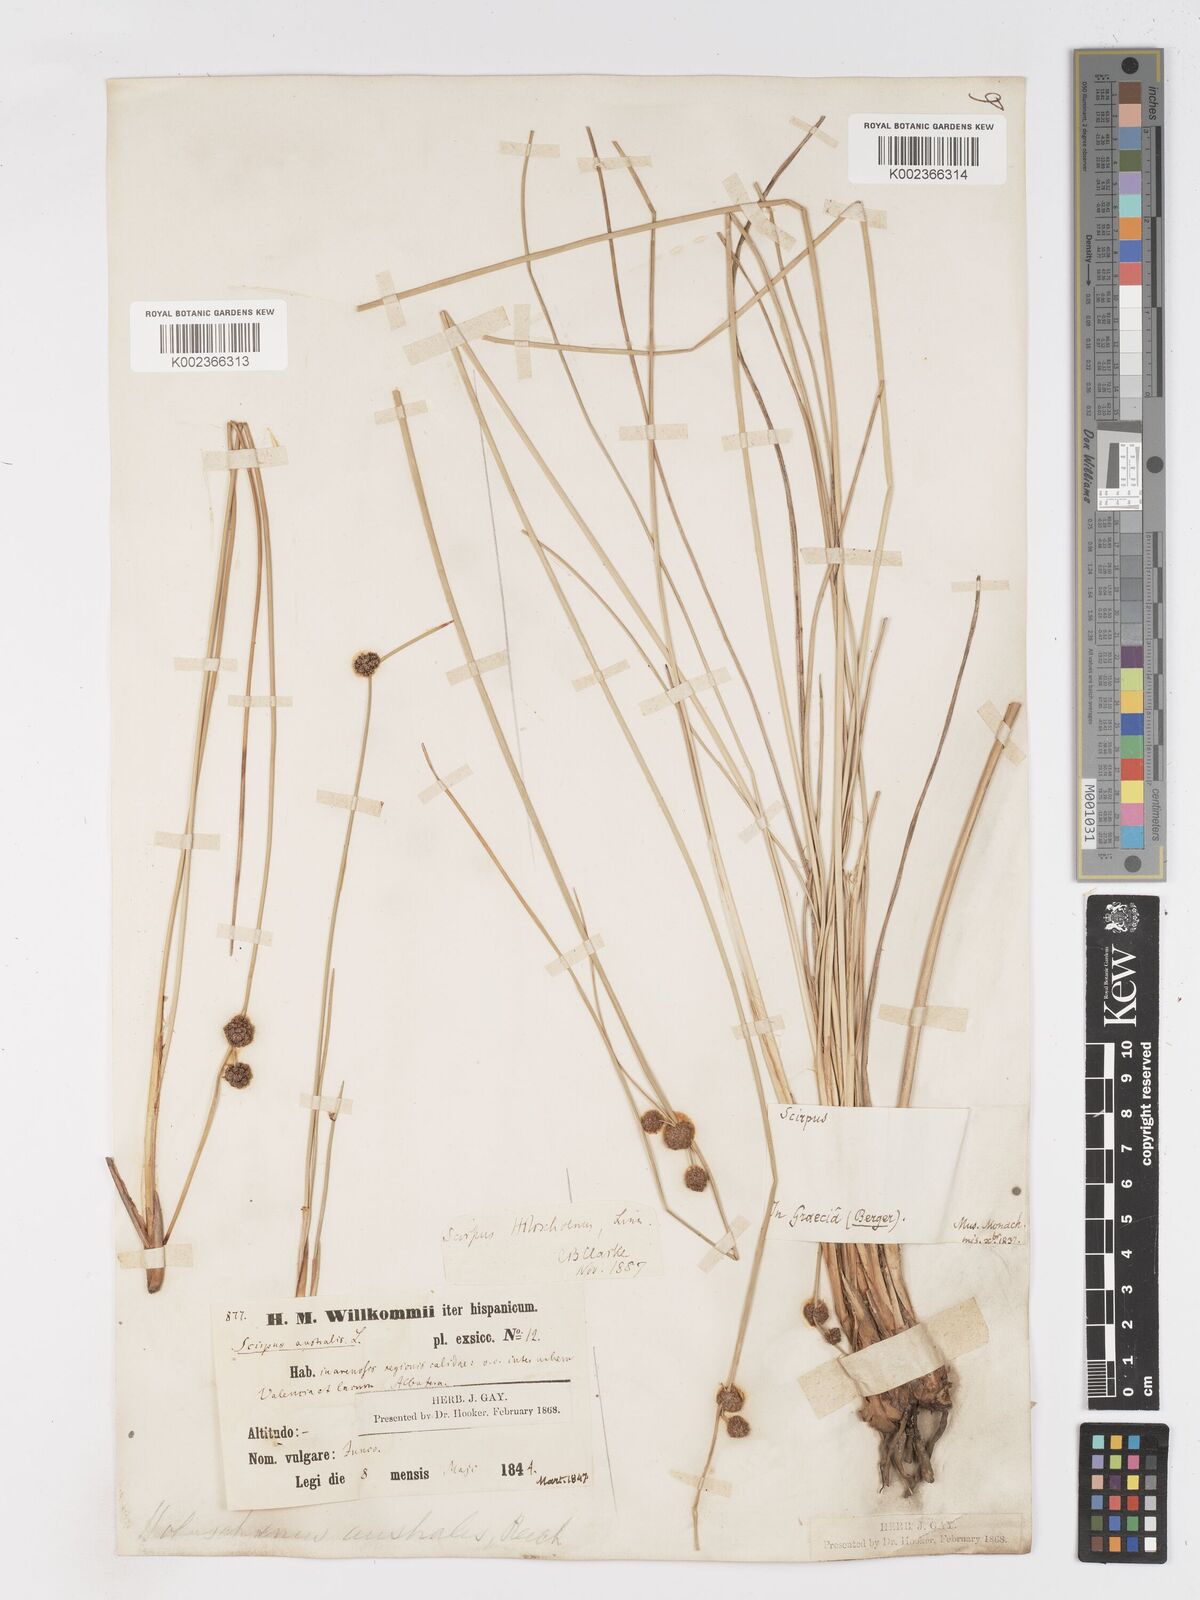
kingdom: Plantae
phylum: Tracheophyta
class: Liliopsida
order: Poales
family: Cyperaceae
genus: Scirpoides
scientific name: Scirpoides holoschoenus
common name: Round-headed club-rush
